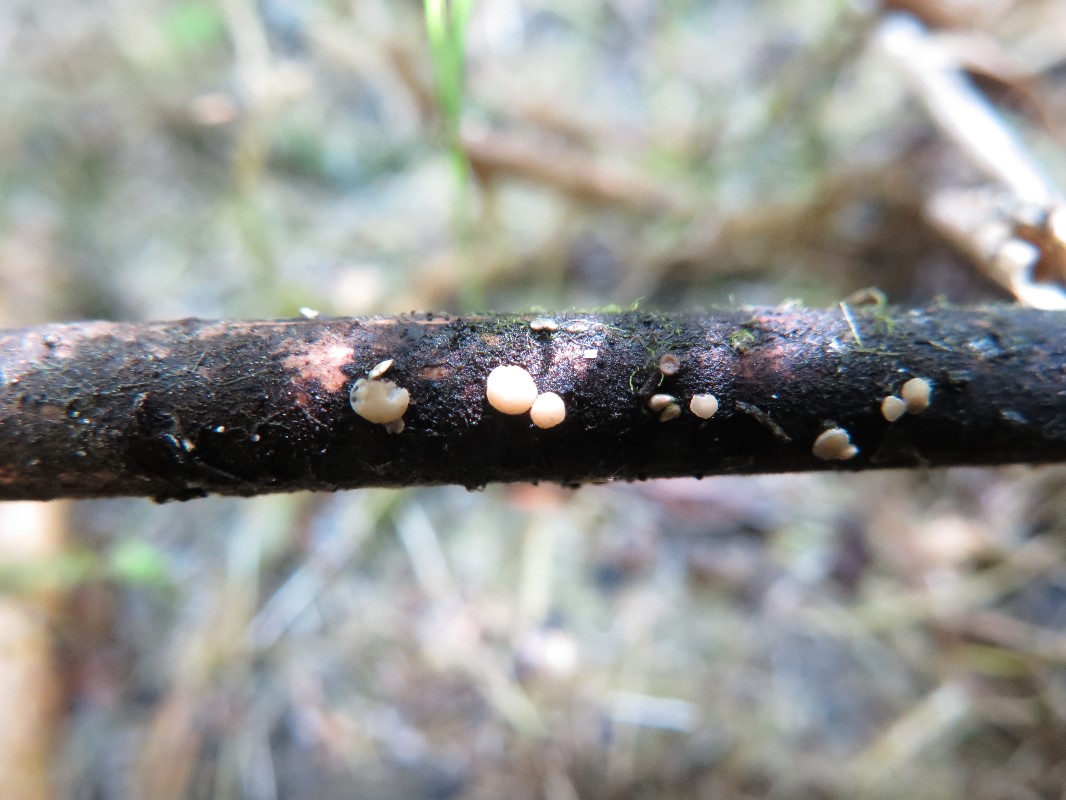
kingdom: Fungi
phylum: Ascomycota
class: Leotiomycetes
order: Helotiales
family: Mollisiaceae
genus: Trichobelonium
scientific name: Trichobelonium kneiffii
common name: Reed mat disco
